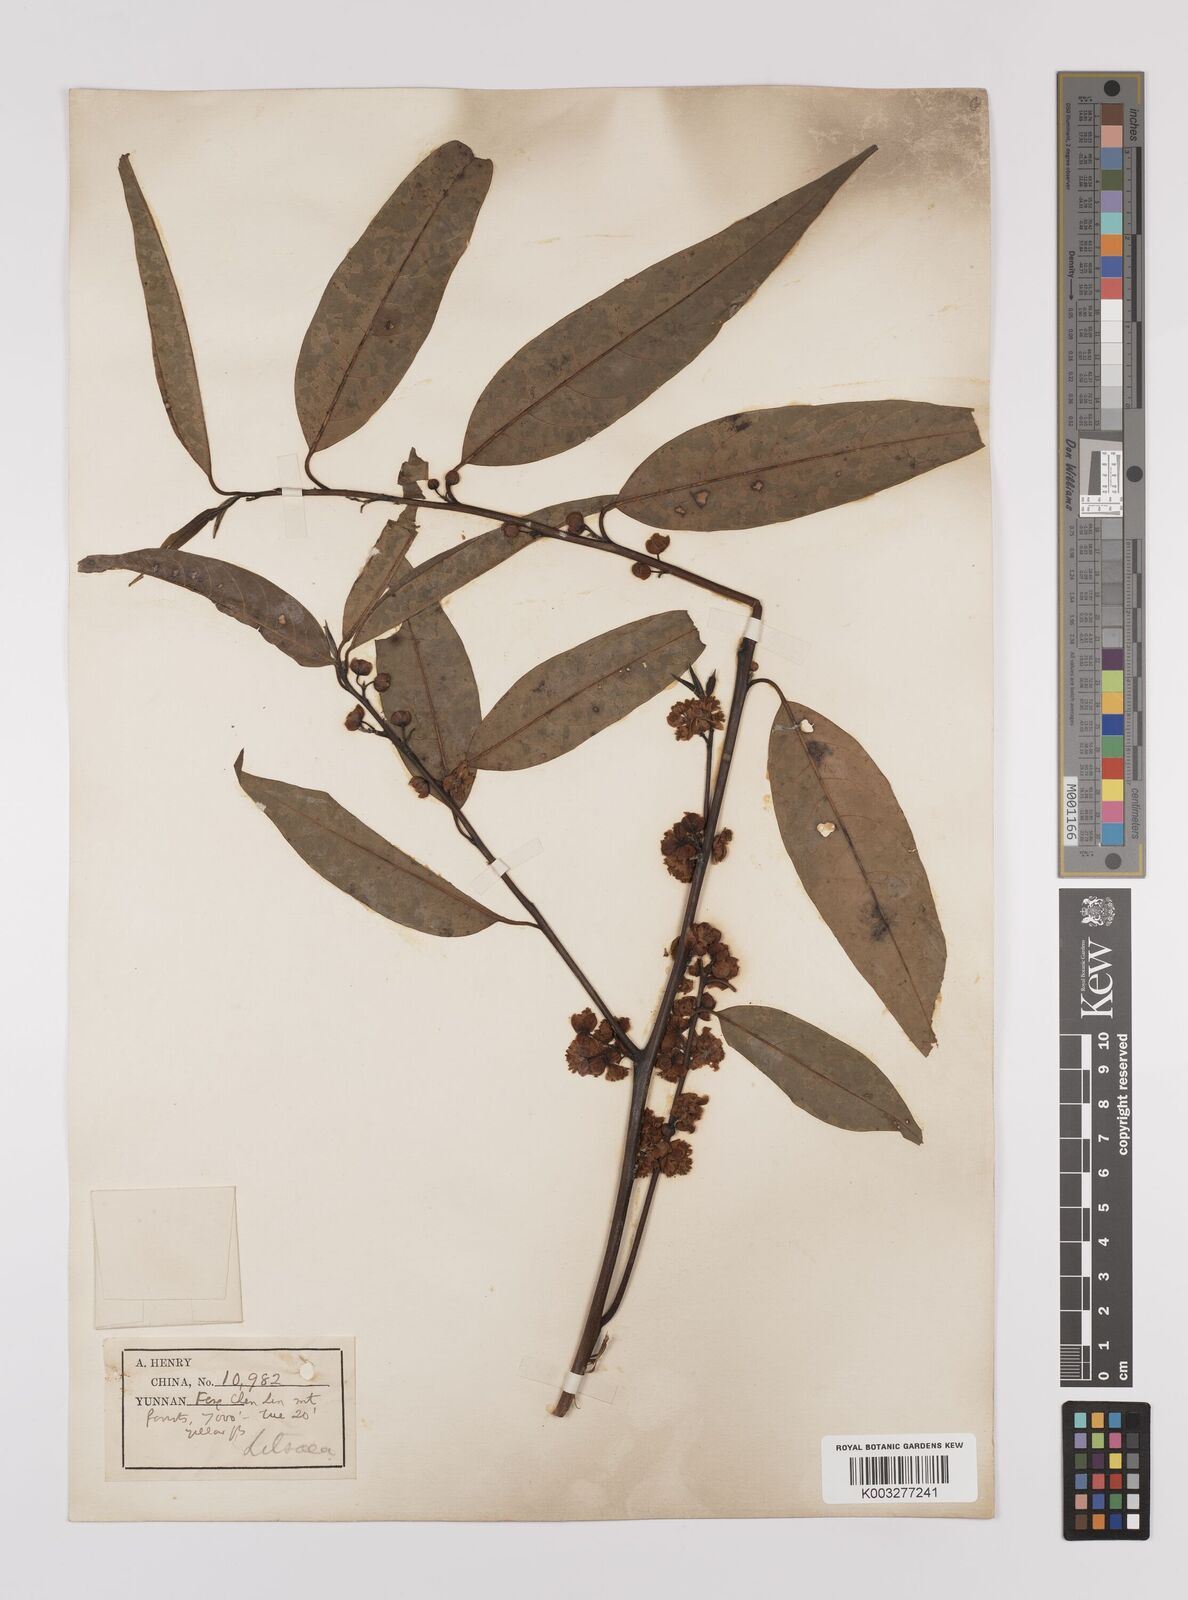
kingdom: Plantae
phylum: Tracheophyta
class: Magnoliopsida
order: Laurales
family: Lauraceae
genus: Lindera
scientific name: Lindera pipericarpa
